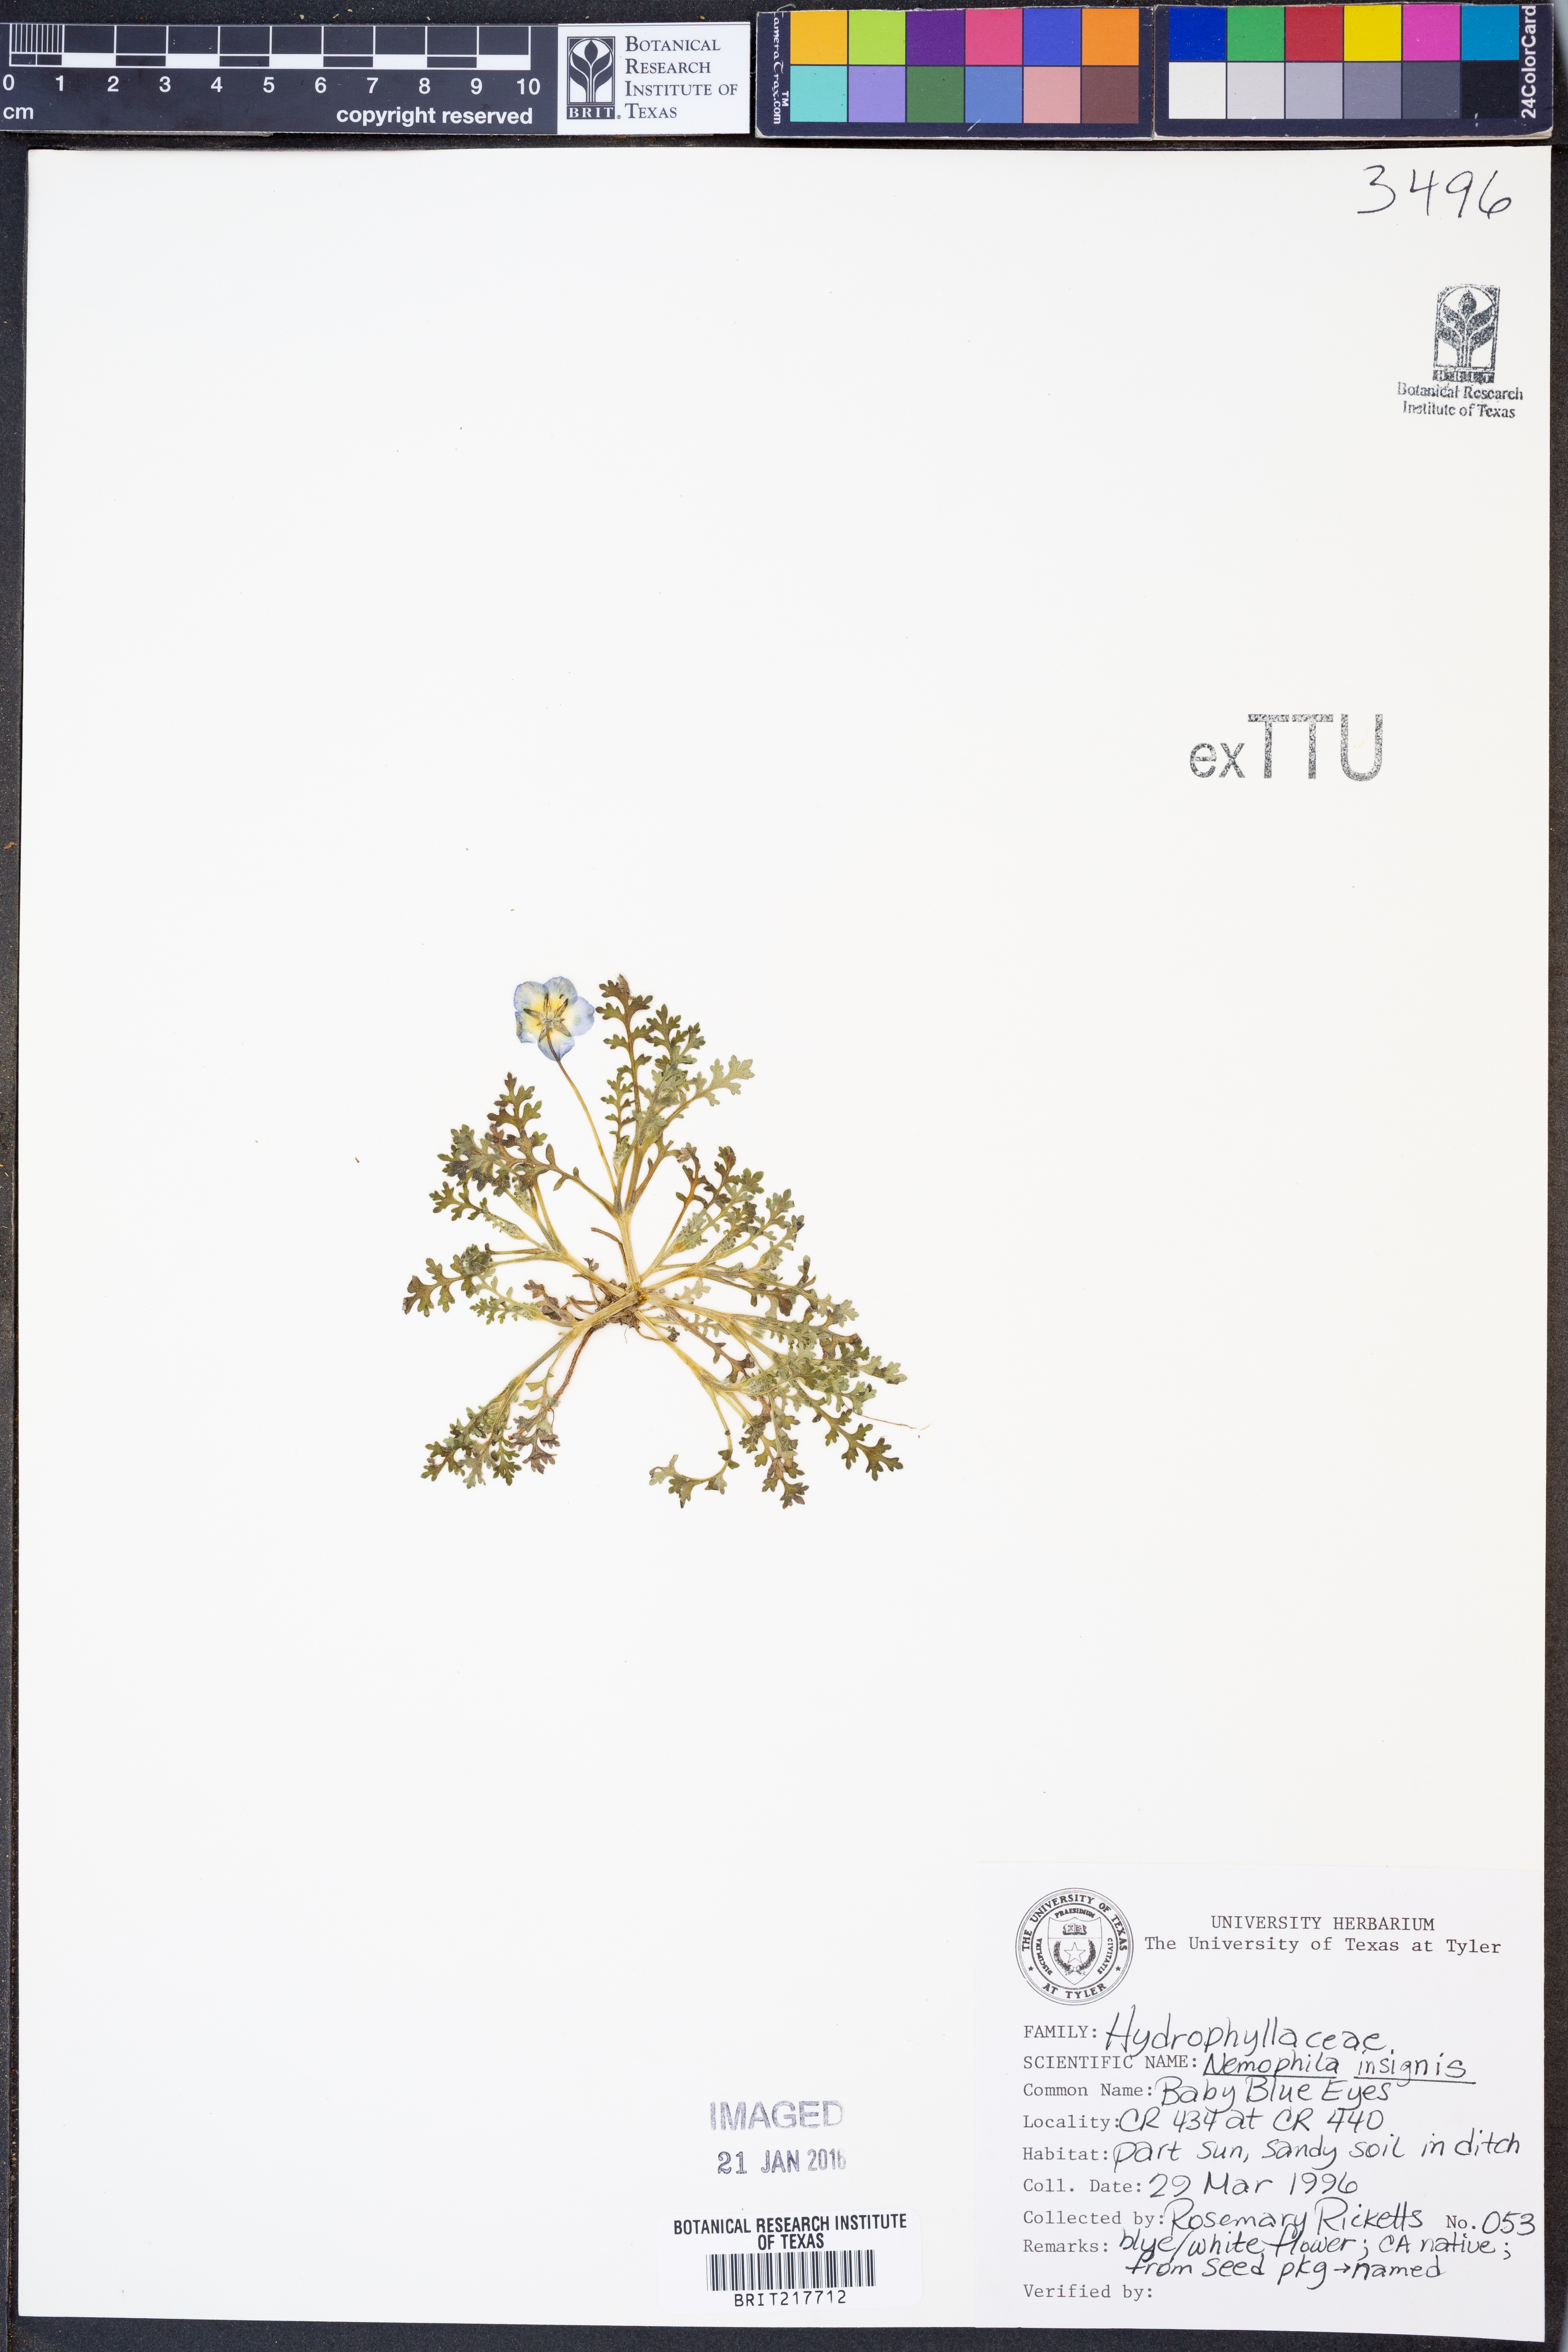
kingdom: Plantae
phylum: Tracheophyta
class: Magnoliopsida
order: Boraginales
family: Hydrophyllaceae
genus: Nemophila
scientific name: Nemophila menziesii
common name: Baby's-blue-eyes
